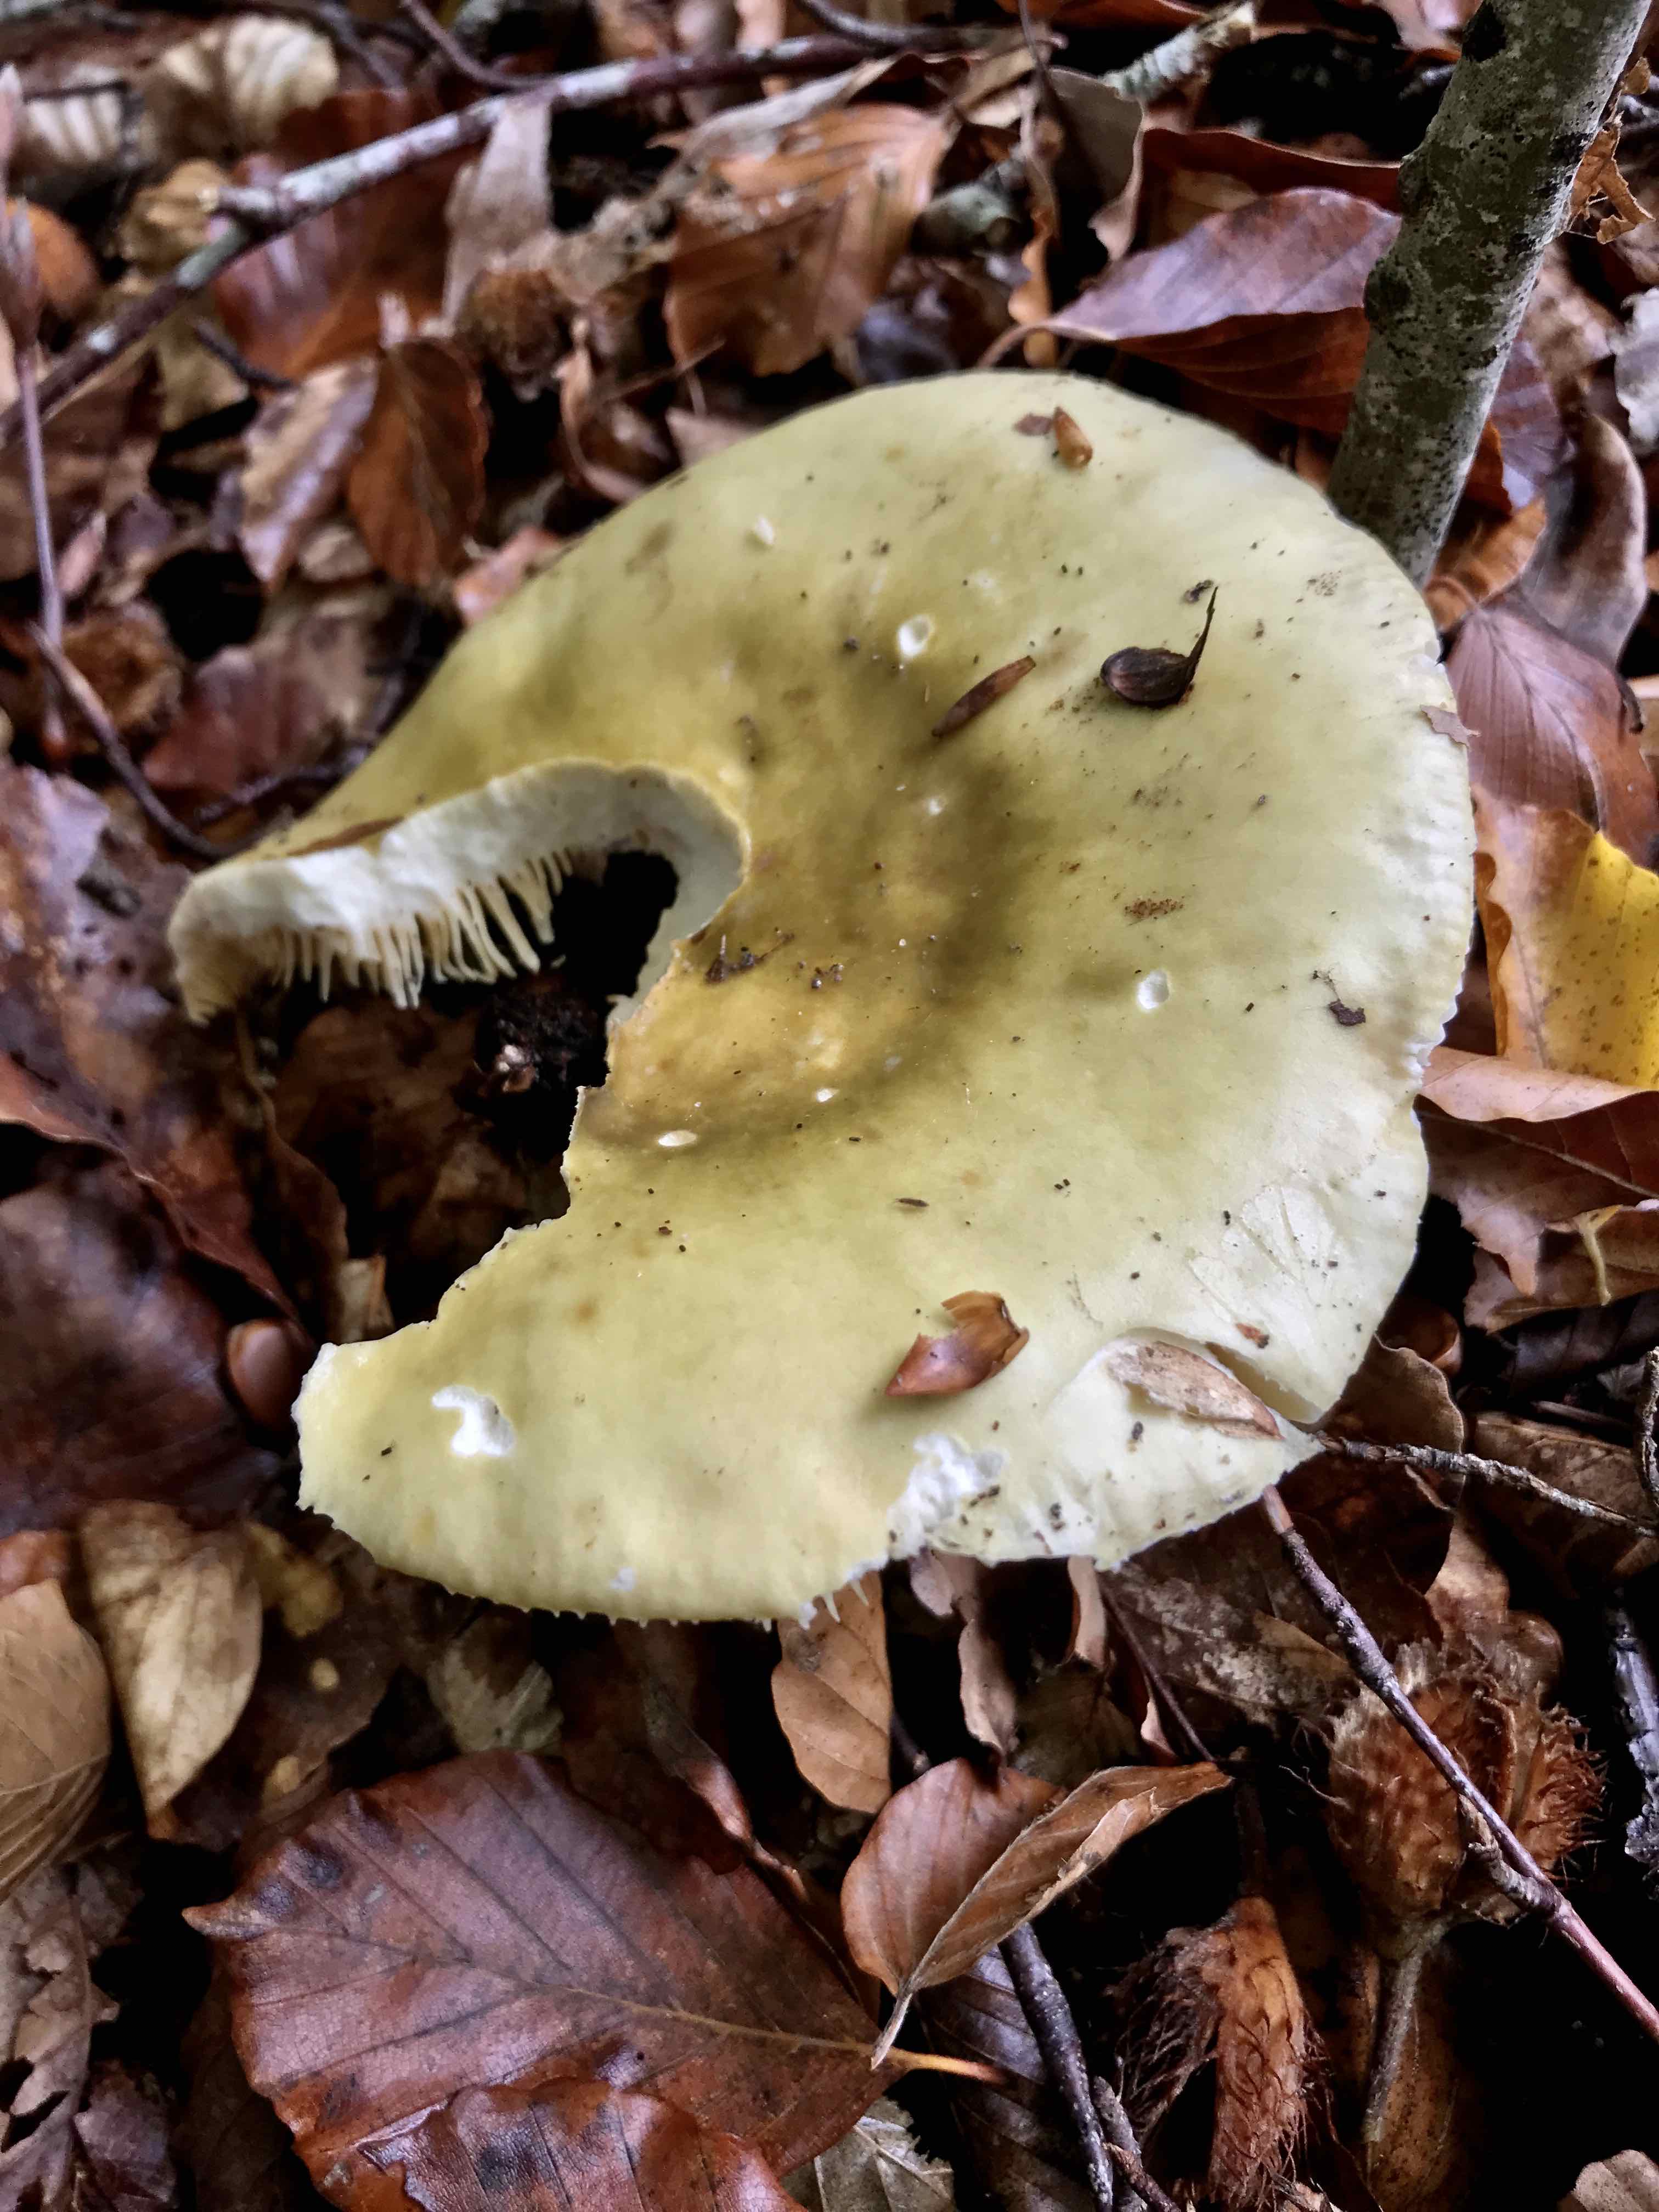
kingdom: Fungi
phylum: Basidiomycota
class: Agaricomycetes
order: Russulales
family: Russulaceae
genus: Russula
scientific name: Russula
